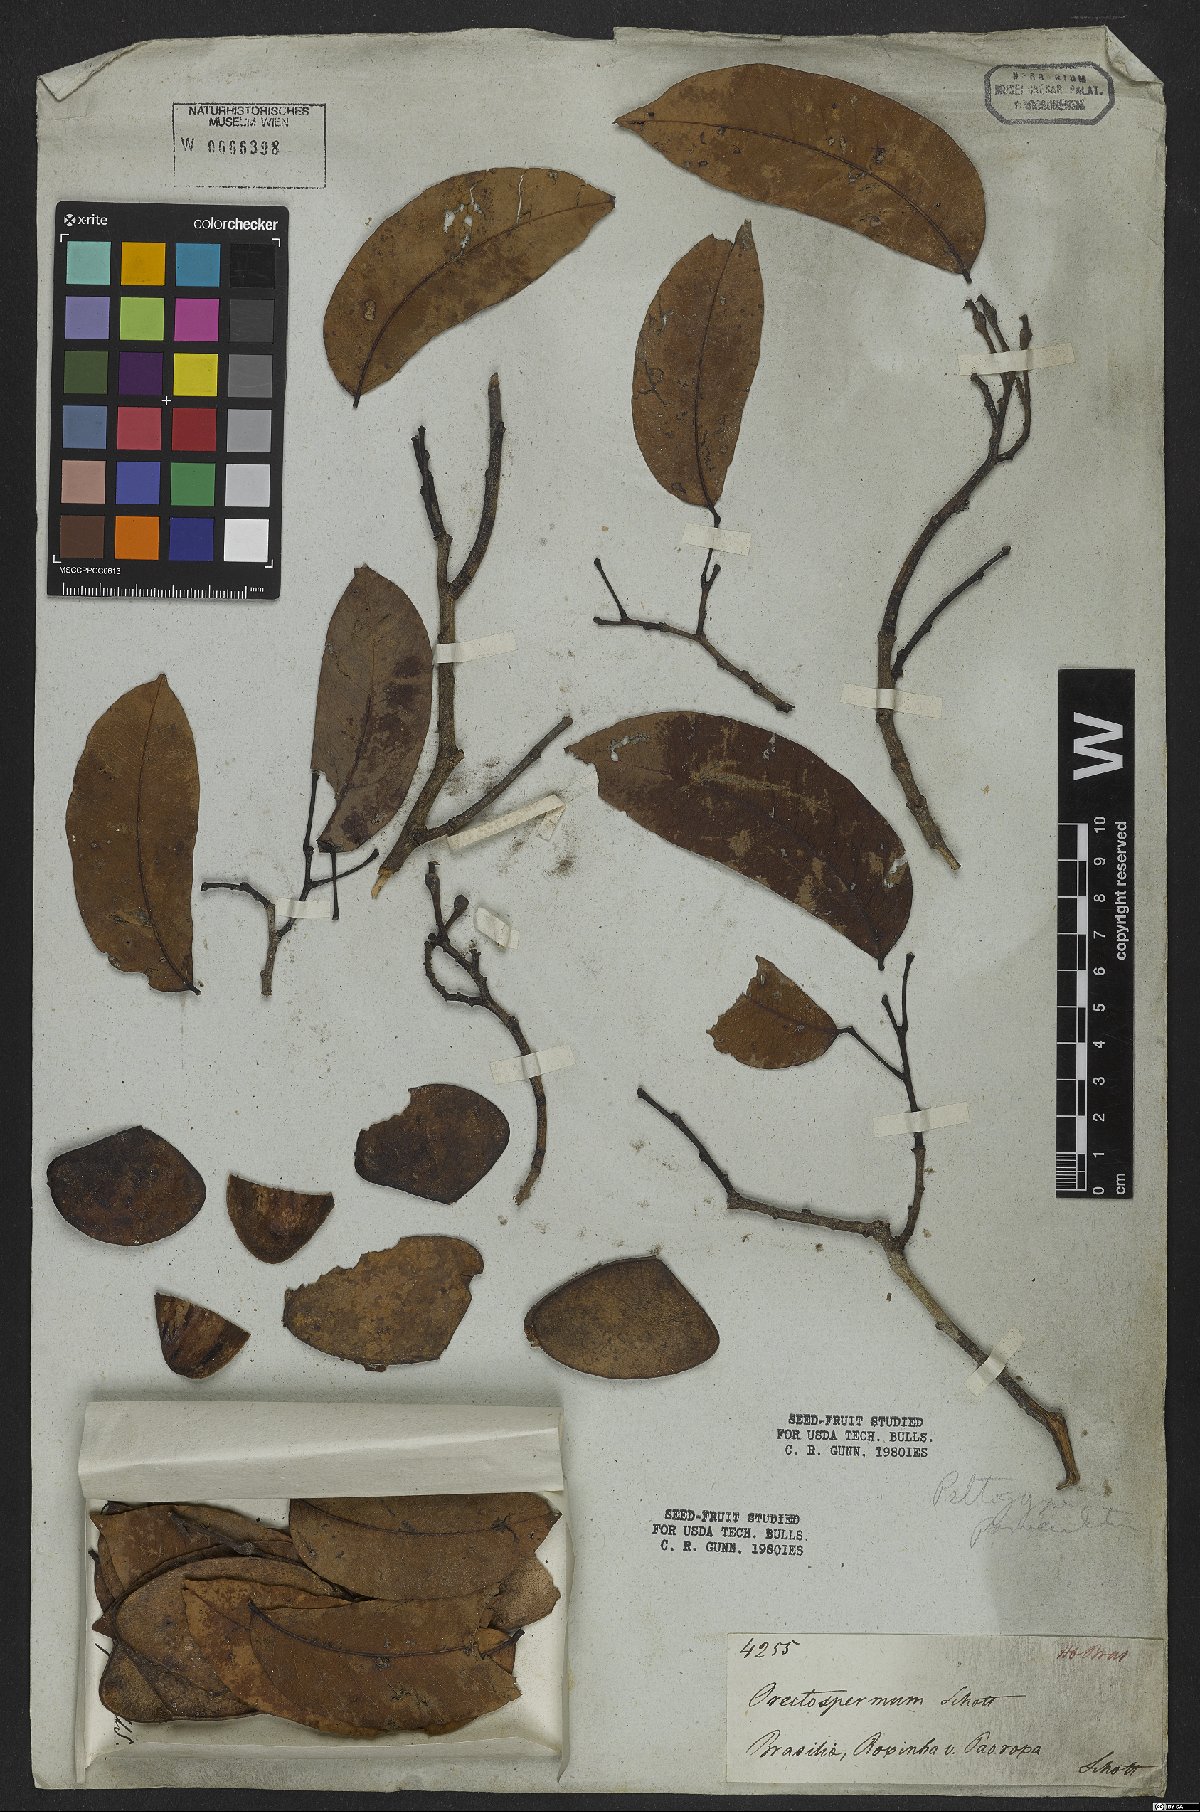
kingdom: Plantae
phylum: Tracheophyta
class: Magnoliopsida
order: Fabales
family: Fabaceae
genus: Peltogyne
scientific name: Peltogyne floribunda
